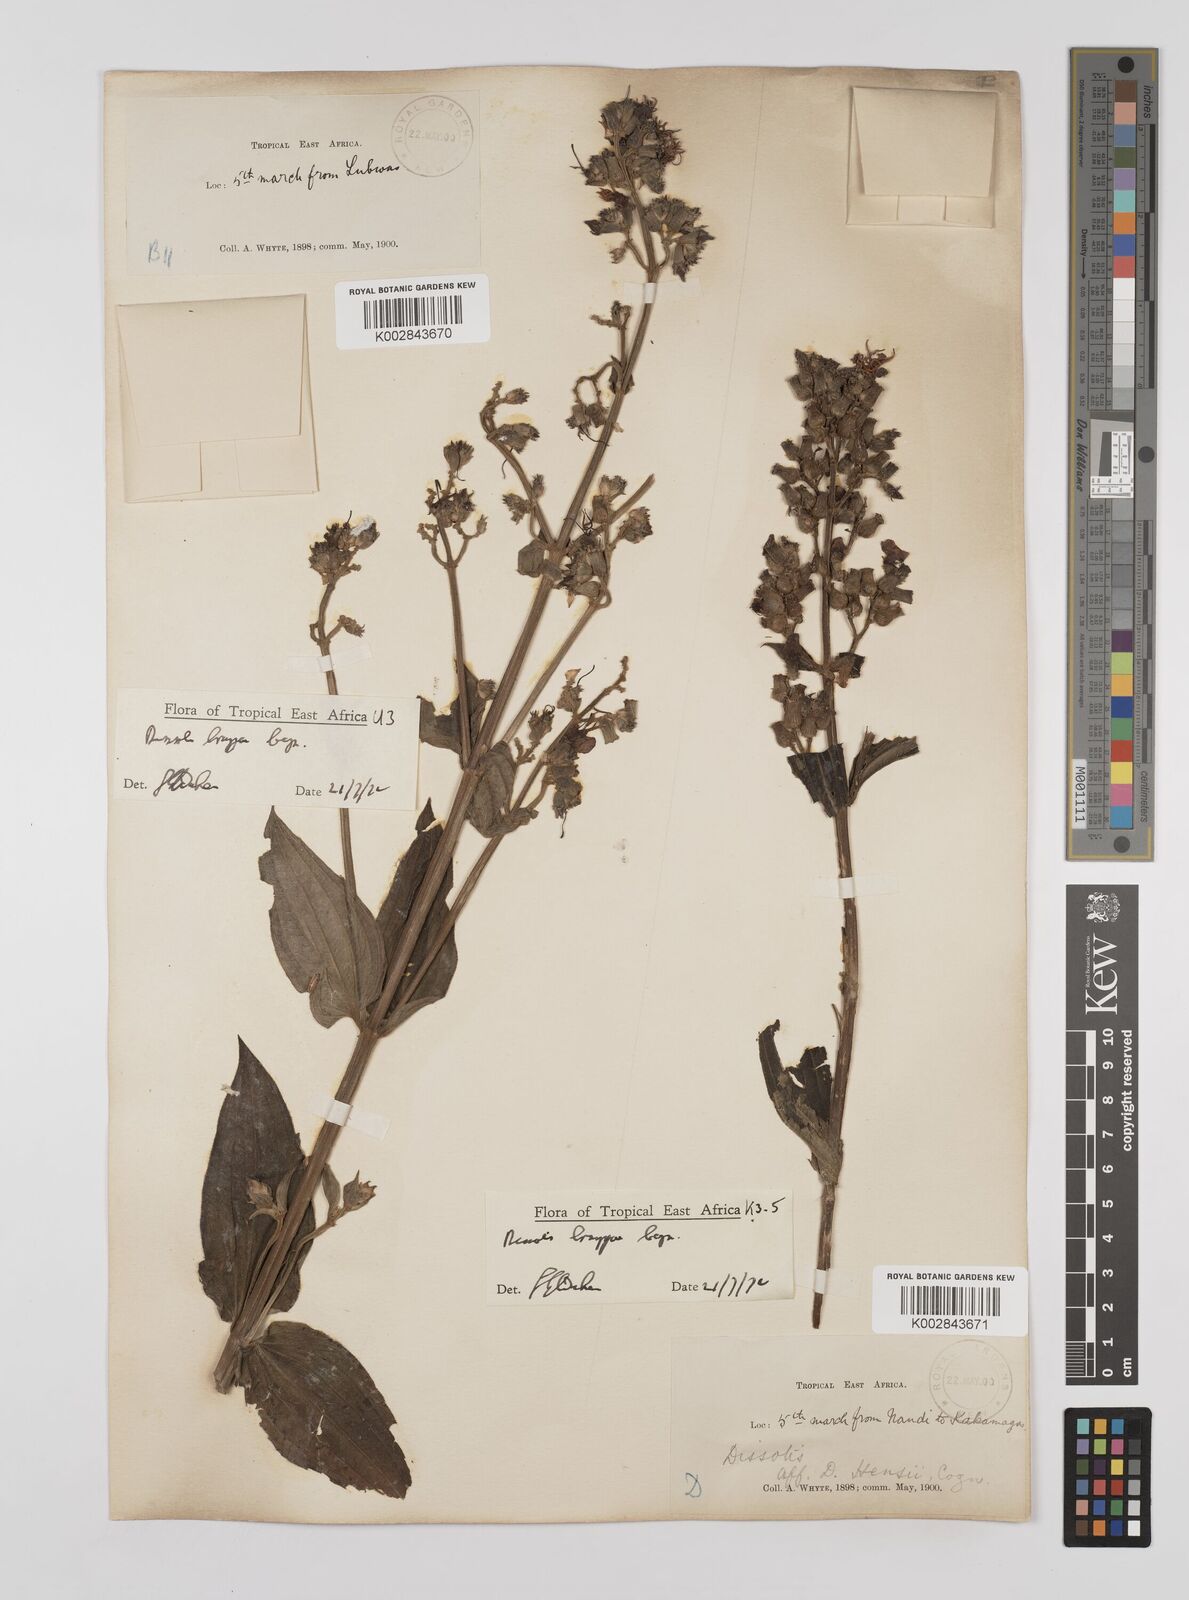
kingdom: Plantae
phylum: Tracheophyta
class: Magnoliopsida
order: Myrtales
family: Melastomataceae
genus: Dupineta
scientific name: Dupineta brazzae
